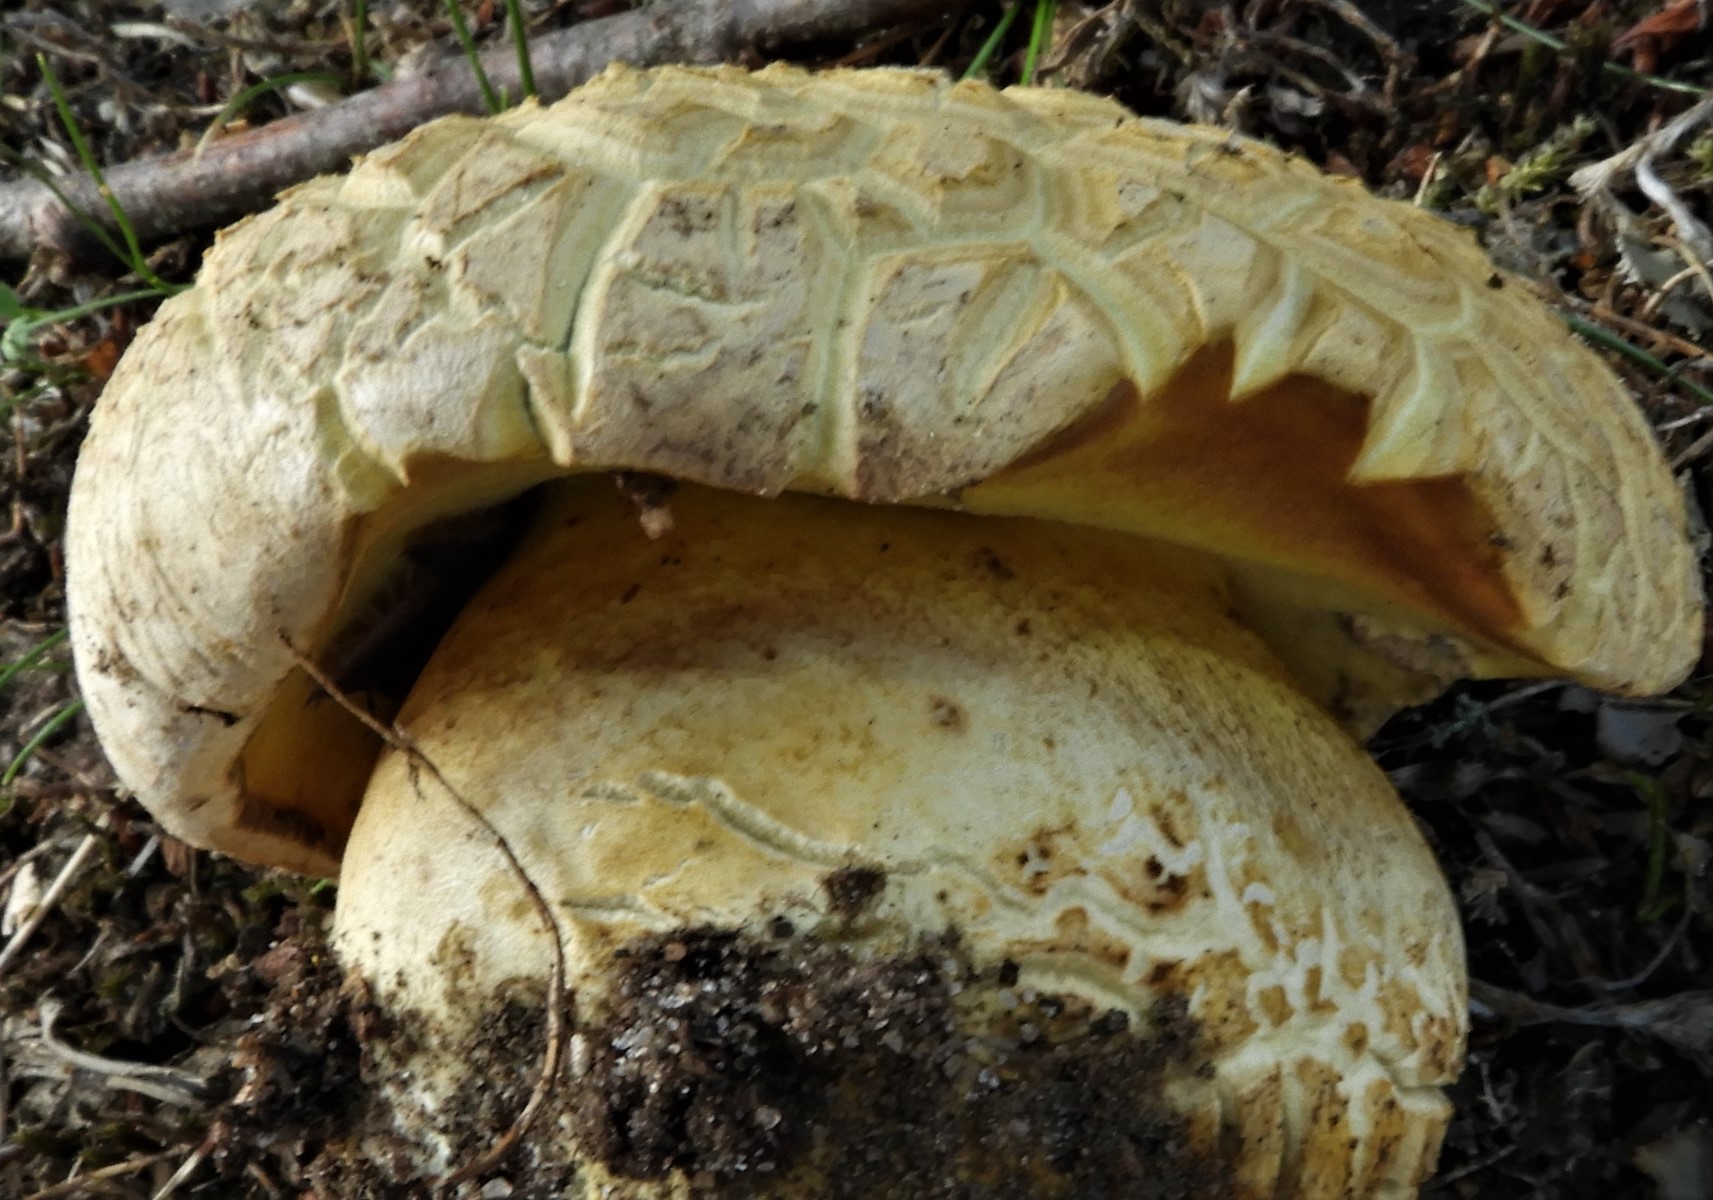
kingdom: Fungi
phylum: Basidiomycota
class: Agaricomycetes
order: Boletales
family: Boletaceae
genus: Boletus
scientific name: Boletus reticulatus
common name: sommer-rørhat
